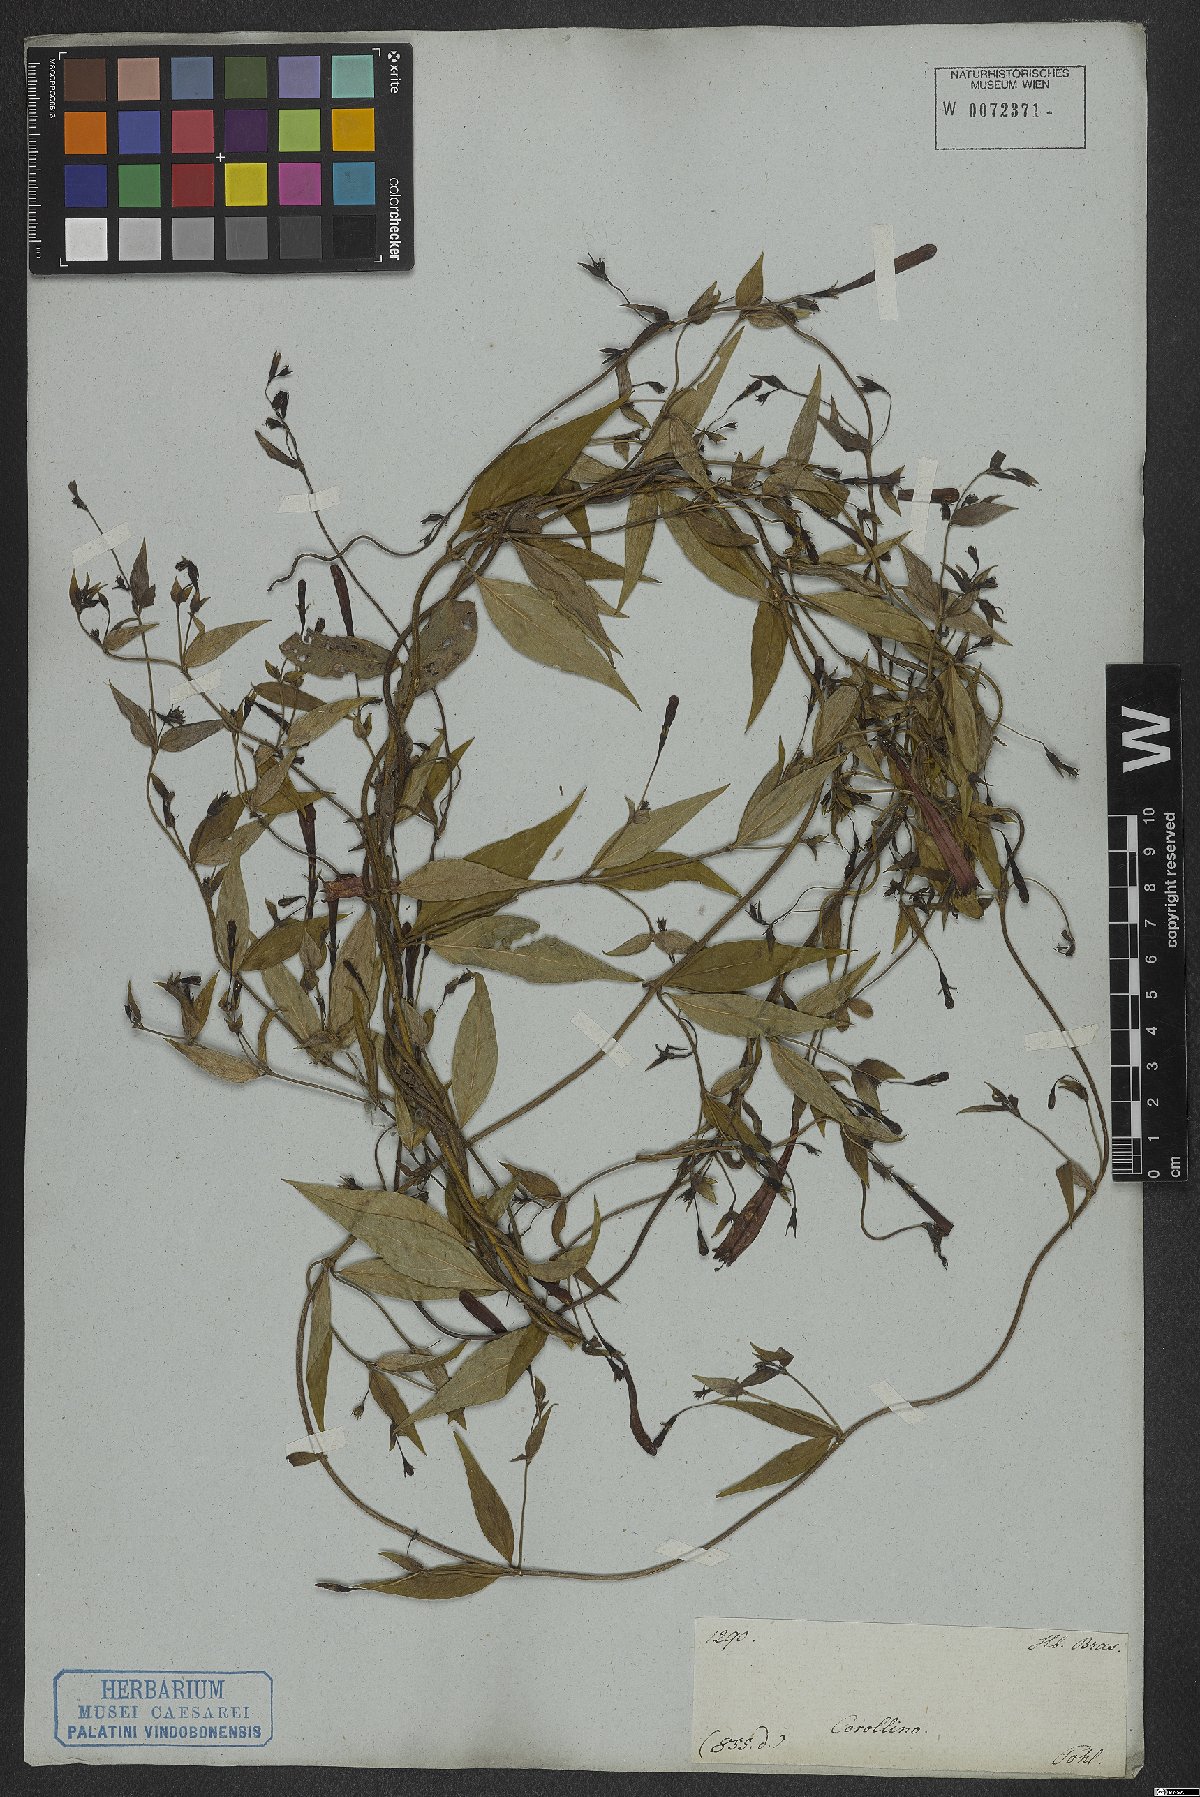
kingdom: Plantae
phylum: Tracheophyta
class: Magnoliopsida
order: Gentianales
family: Rubiaceae
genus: Manettia
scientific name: Manettia
